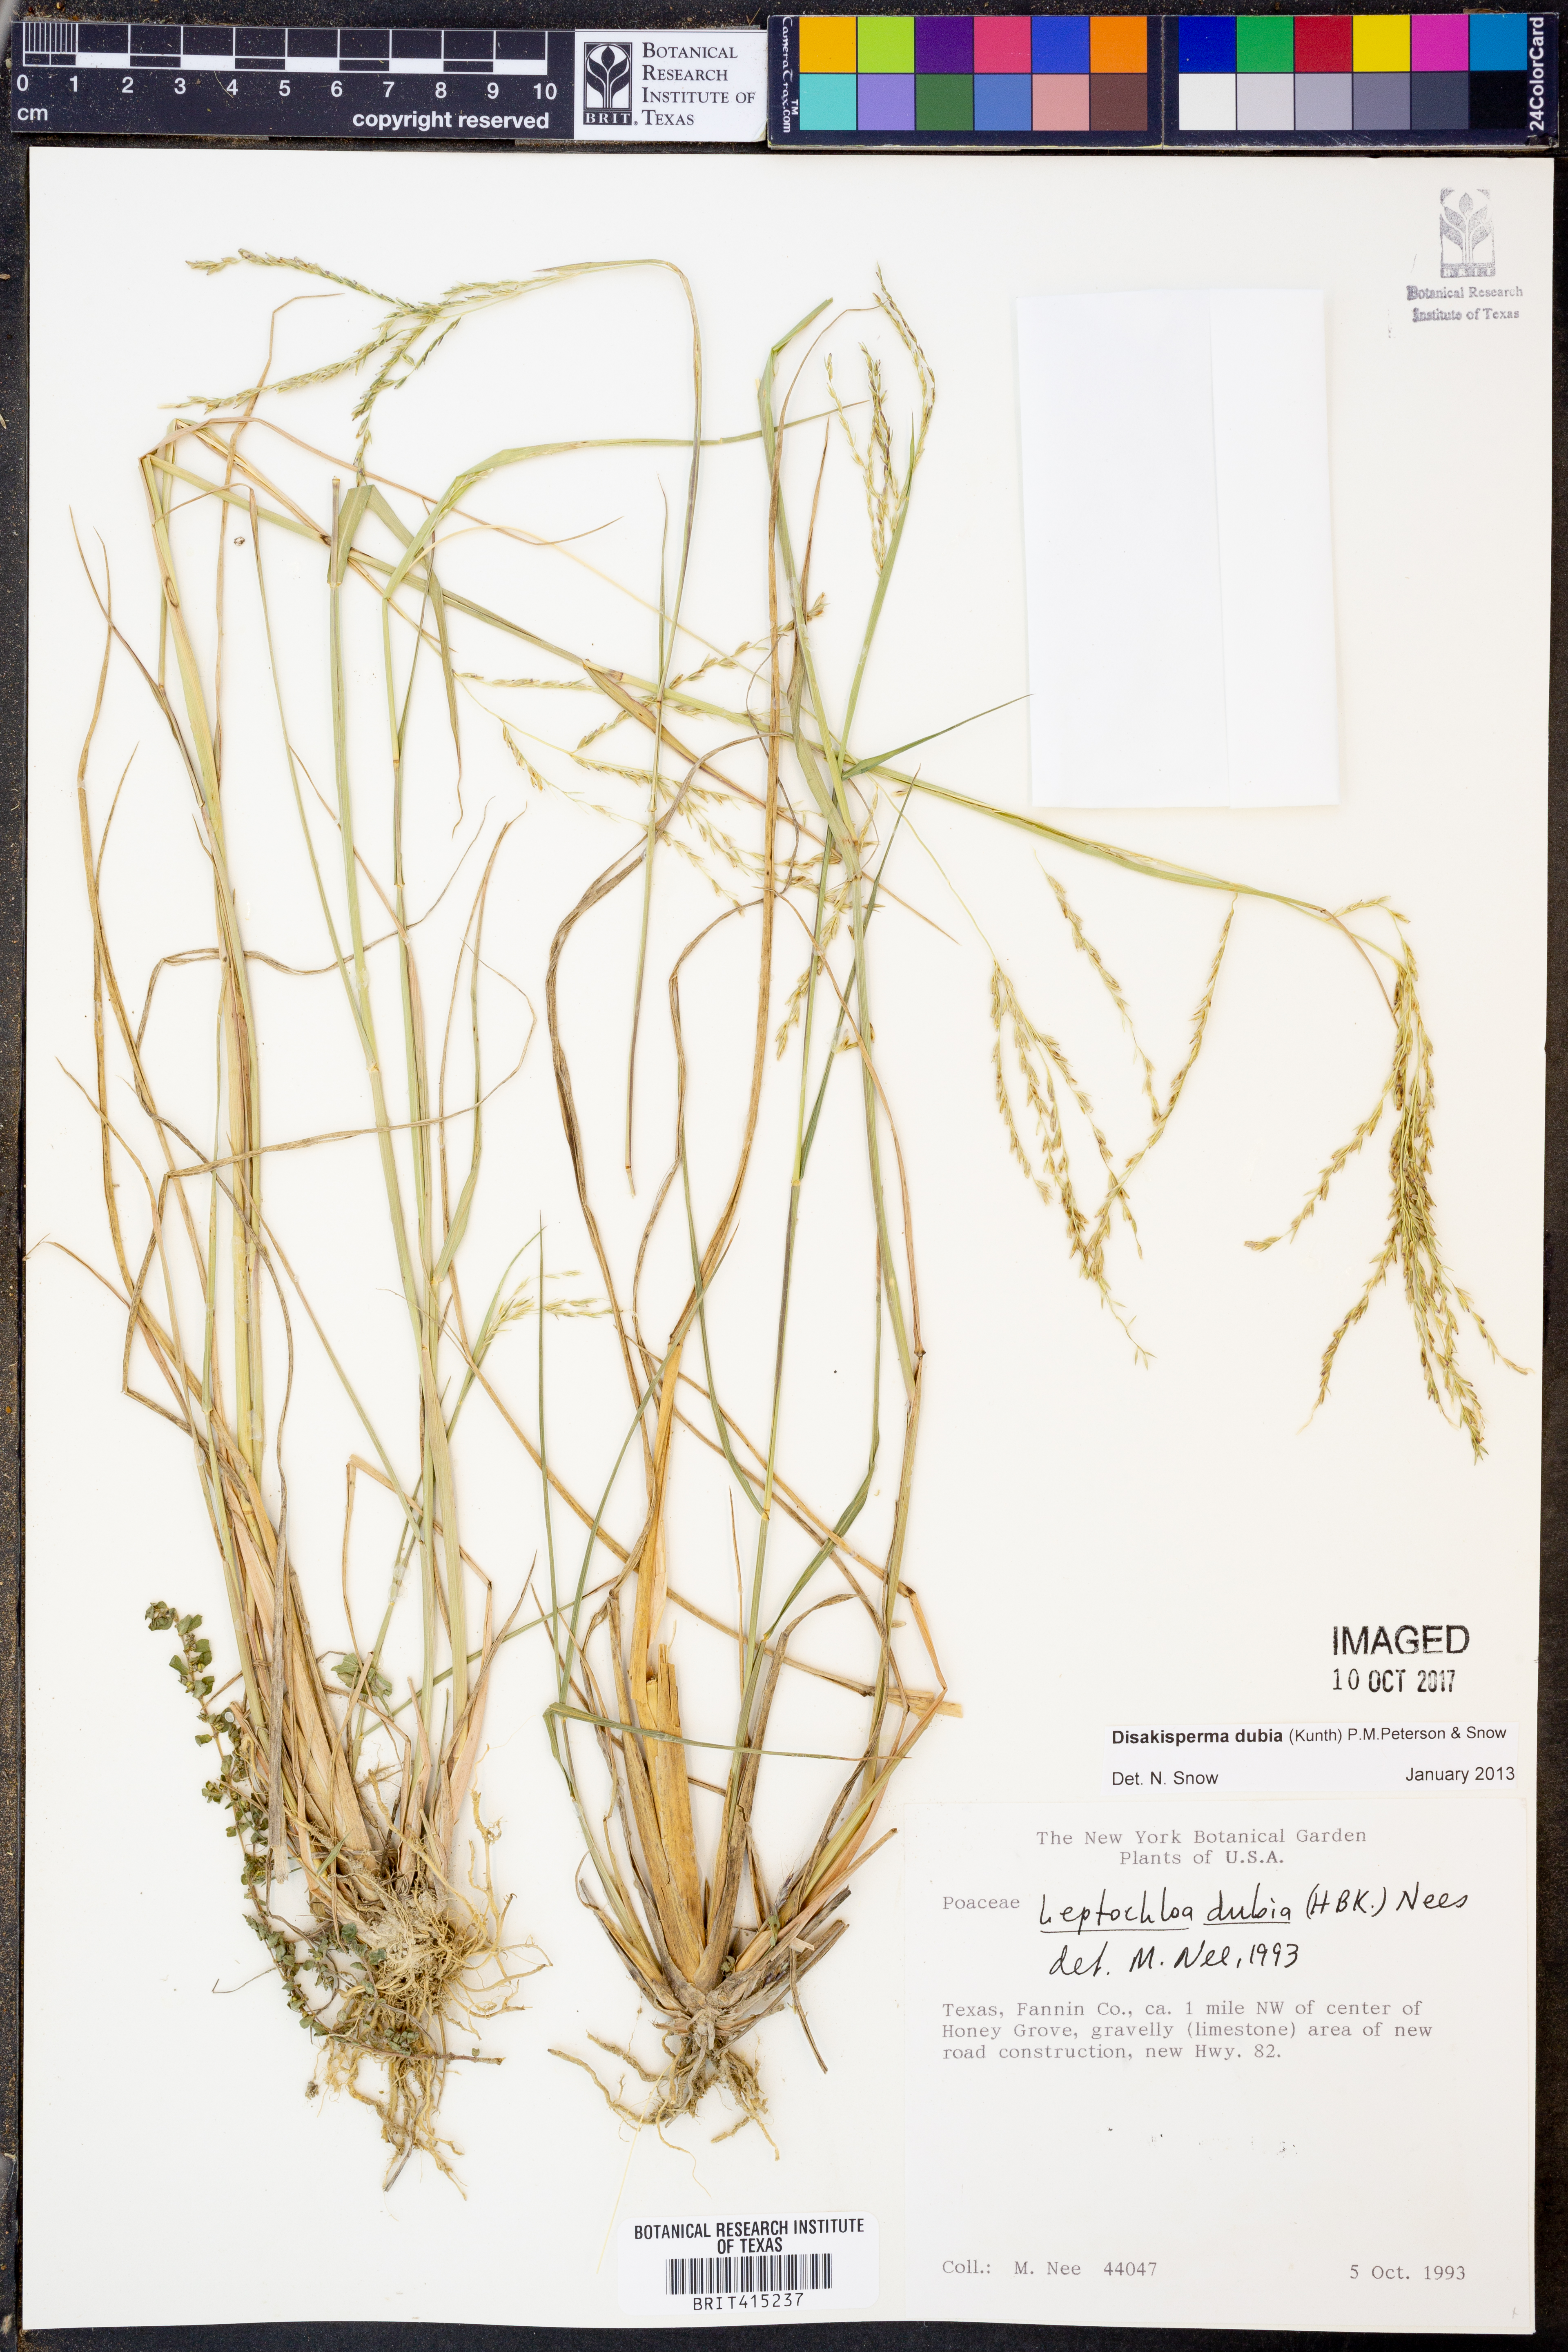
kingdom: Plantae
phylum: Tracheophyta
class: Liliopsida
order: Poales
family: Poaceae
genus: Disakisperma
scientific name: Disakisperma dubium
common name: Green sprangletop
